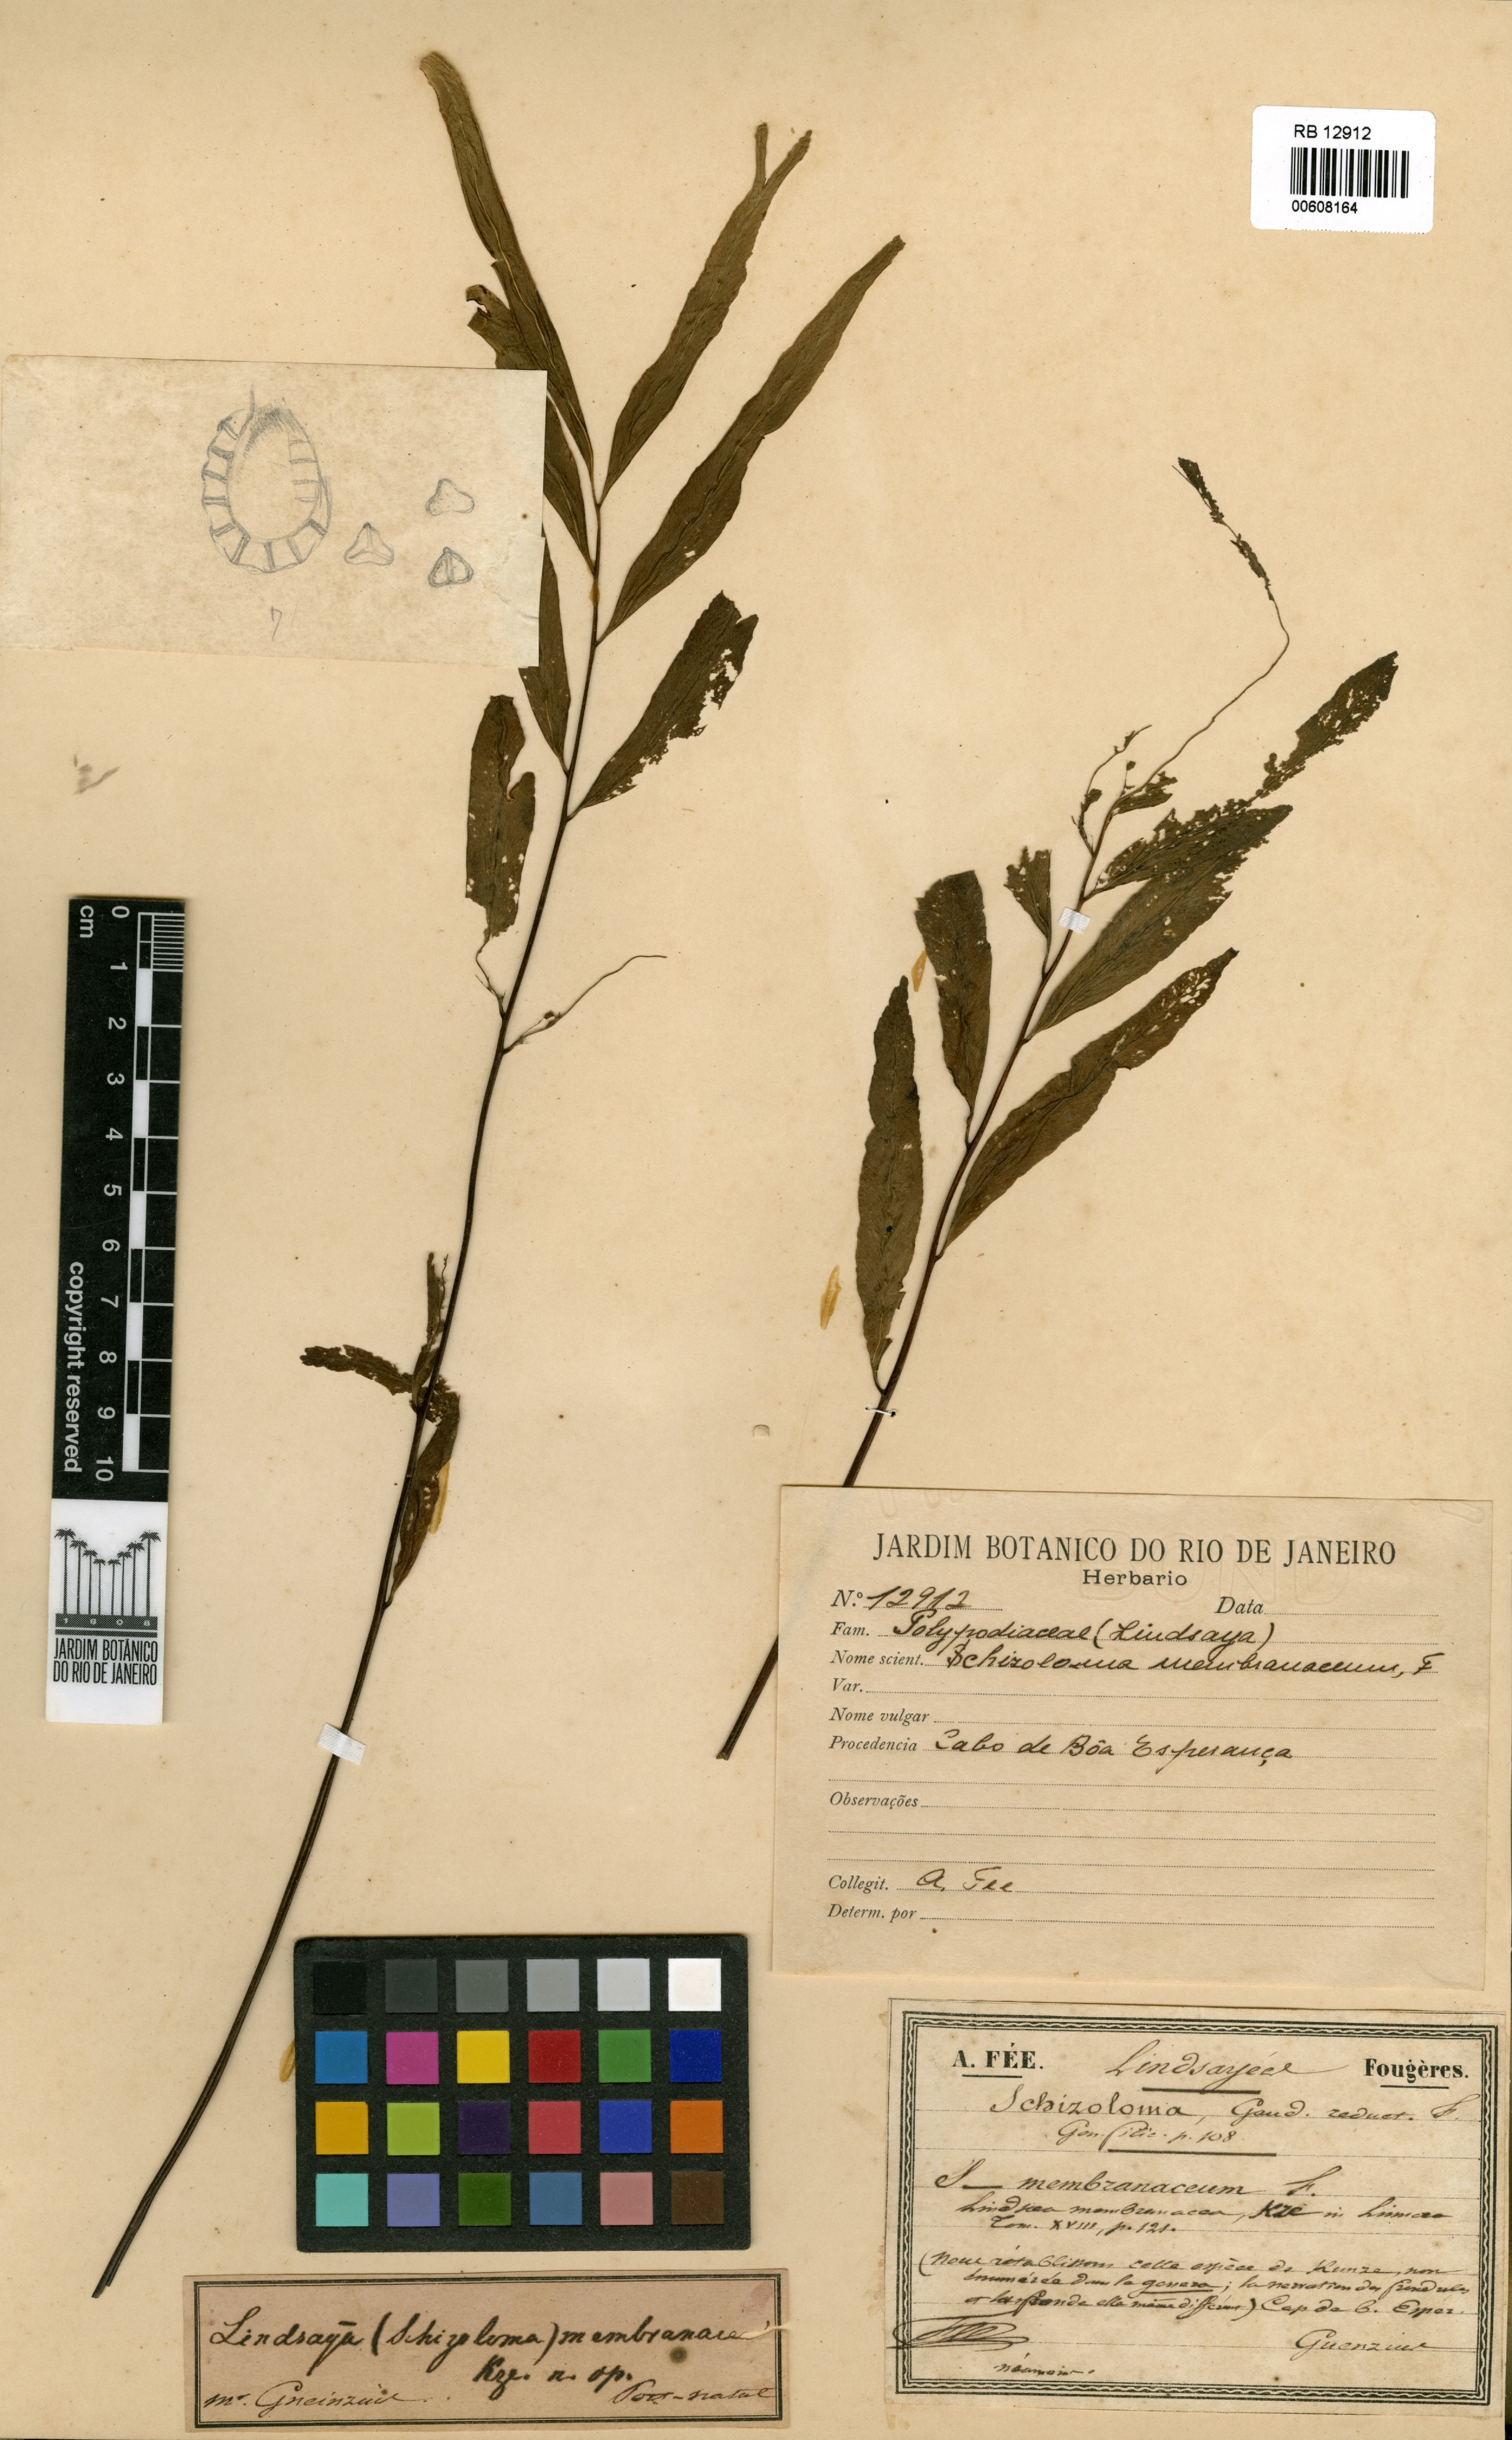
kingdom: Plantae
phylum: Tracheophyta
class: Polypodiopsida
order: Polypodiales
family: Lindsaeaceae
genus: Lindsaea
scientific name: Lindsaea ensifolia
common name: Graceful necklace fern
